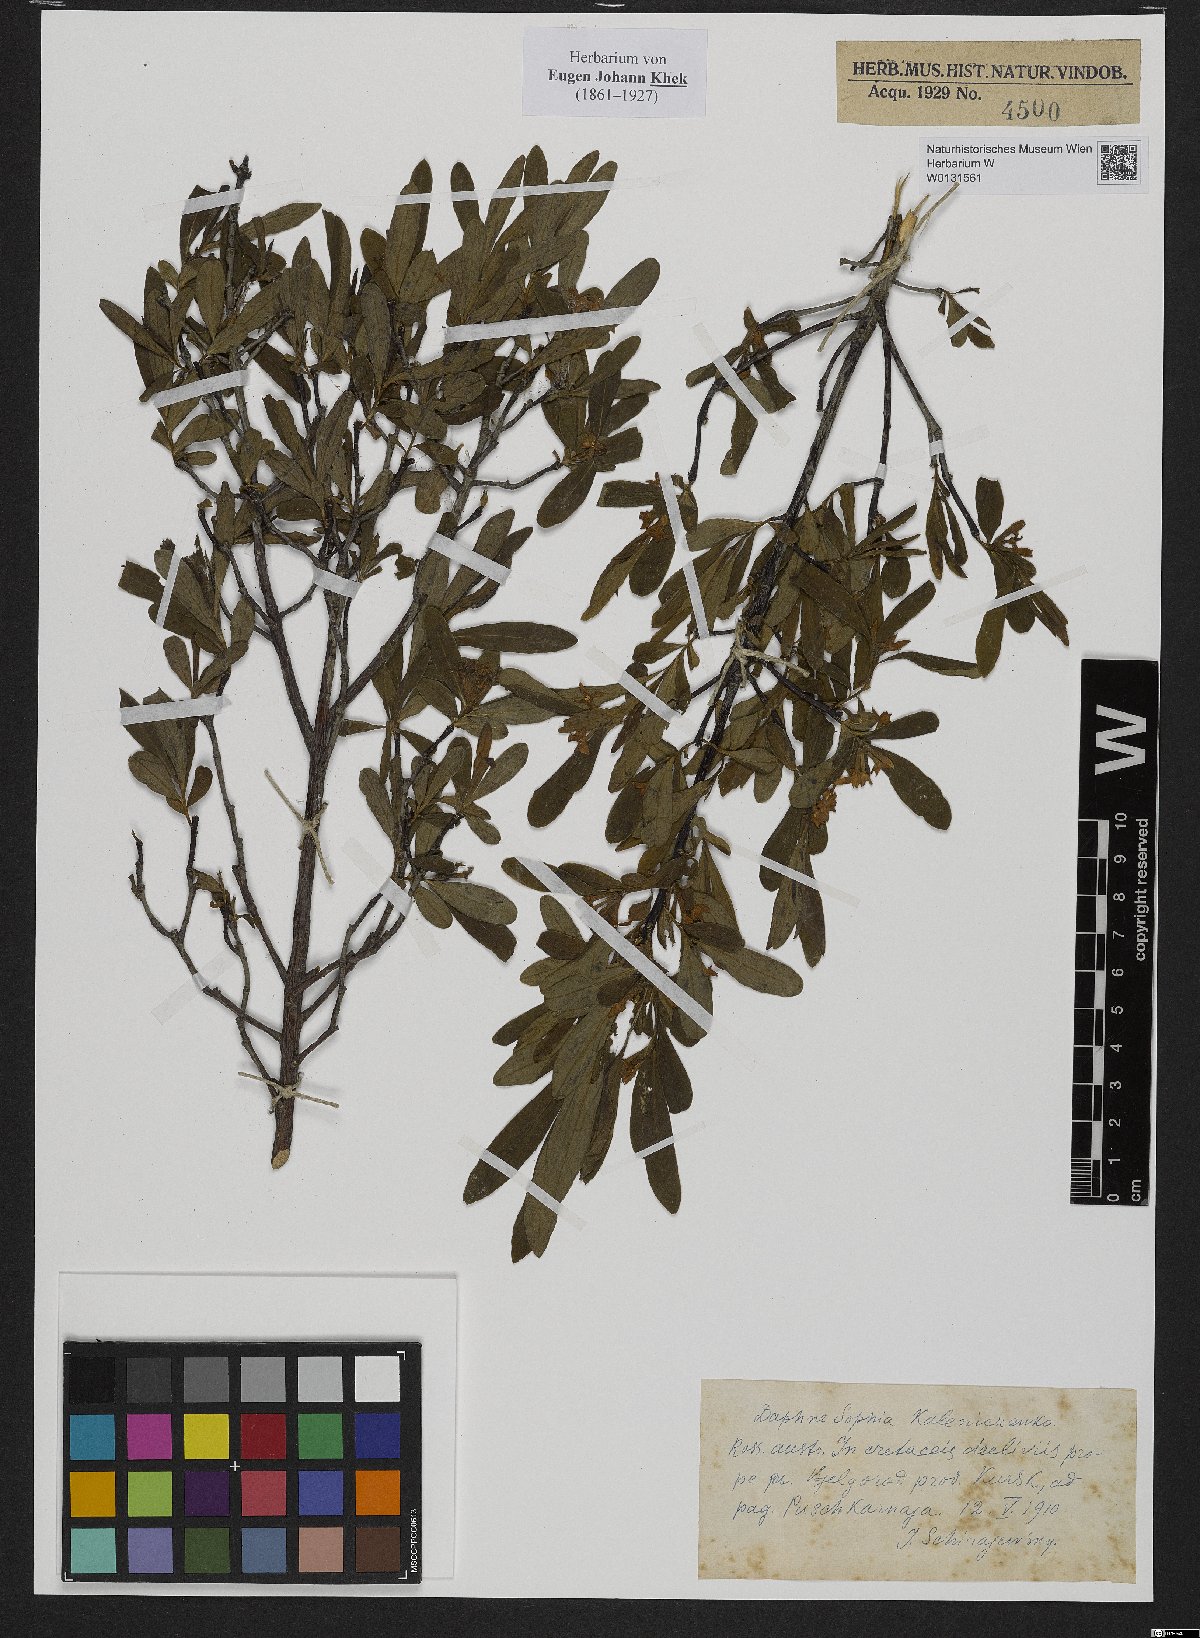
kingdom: Plantae
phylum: Tracheophyta
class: Magnoliopsida
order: Malvales
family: Thymelaeaceae
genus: Daphne
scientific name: Daphne sophia
